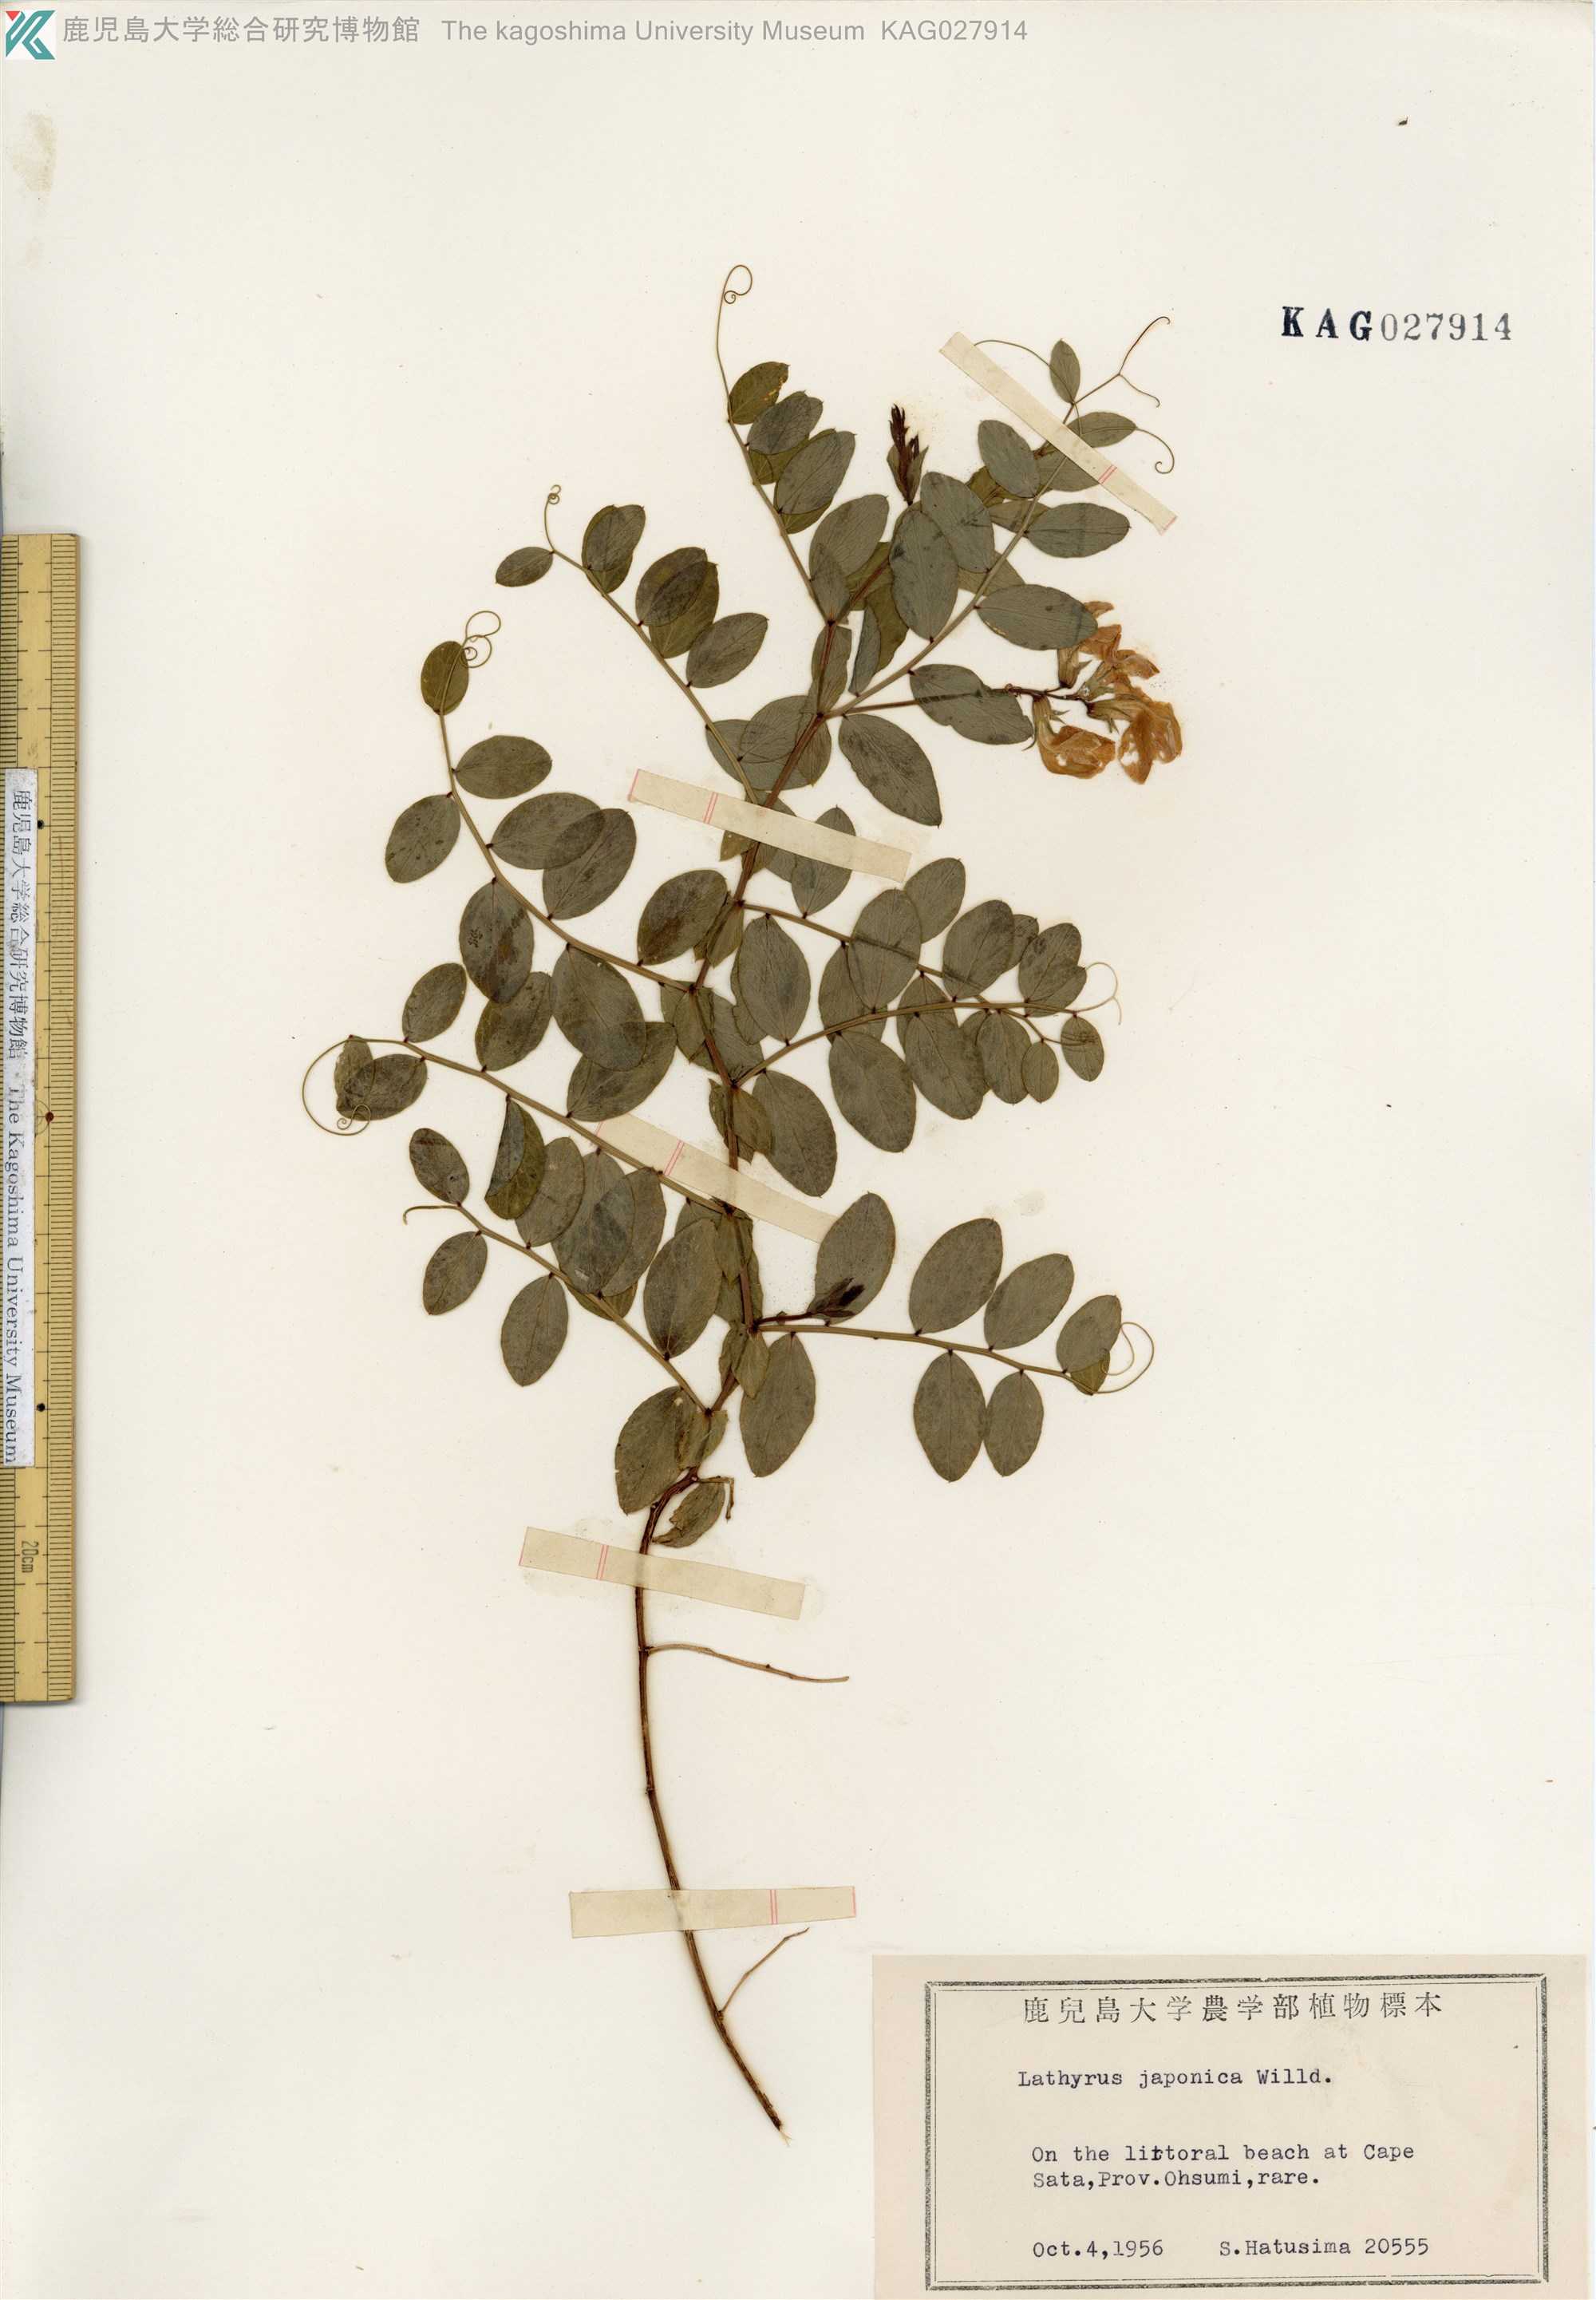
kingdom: Plantae
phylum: Tracheophyta
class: Magnoliopsida
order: Fabales
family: Fabaceae
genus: Lathyrus
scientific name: Lathyrus japonicus
